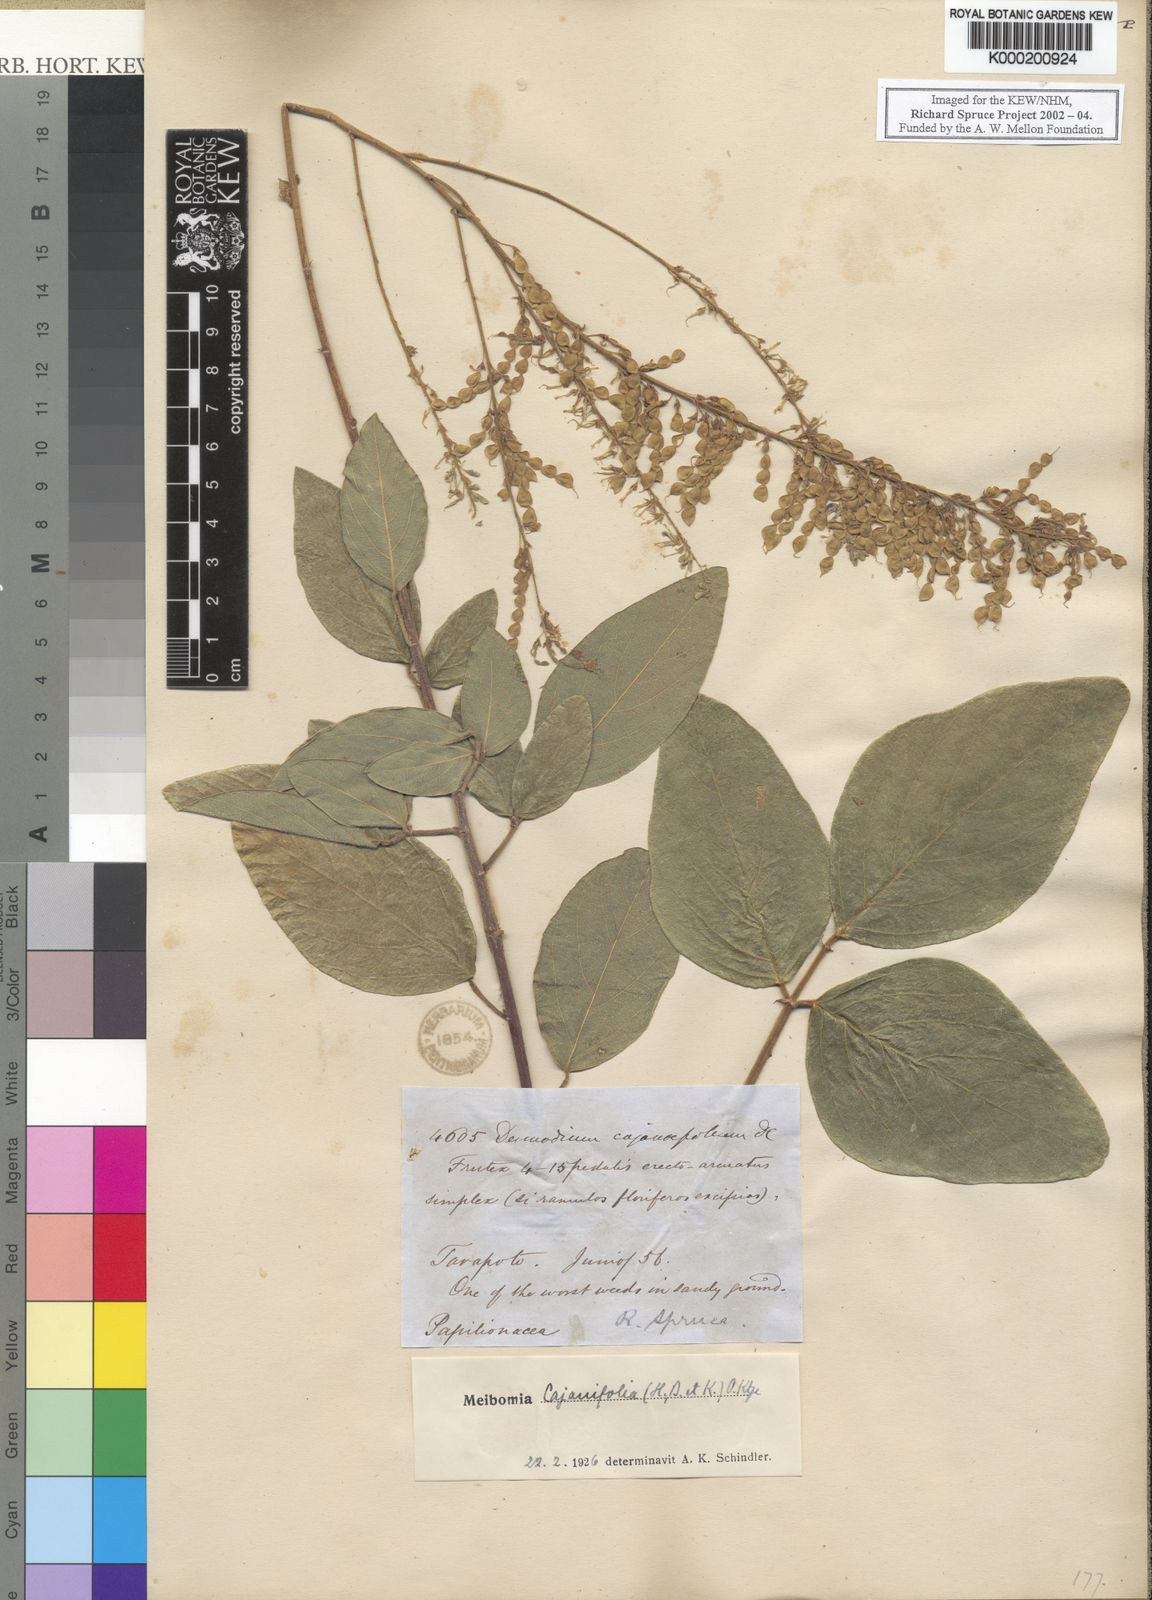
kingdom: Plantae
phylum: Tracheophyta
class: Magnoliopsida
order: Fabales
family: Fabaceae
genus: Desmodium
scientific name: Desmodium cajanifolium
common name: Tropical ticktrefoil
